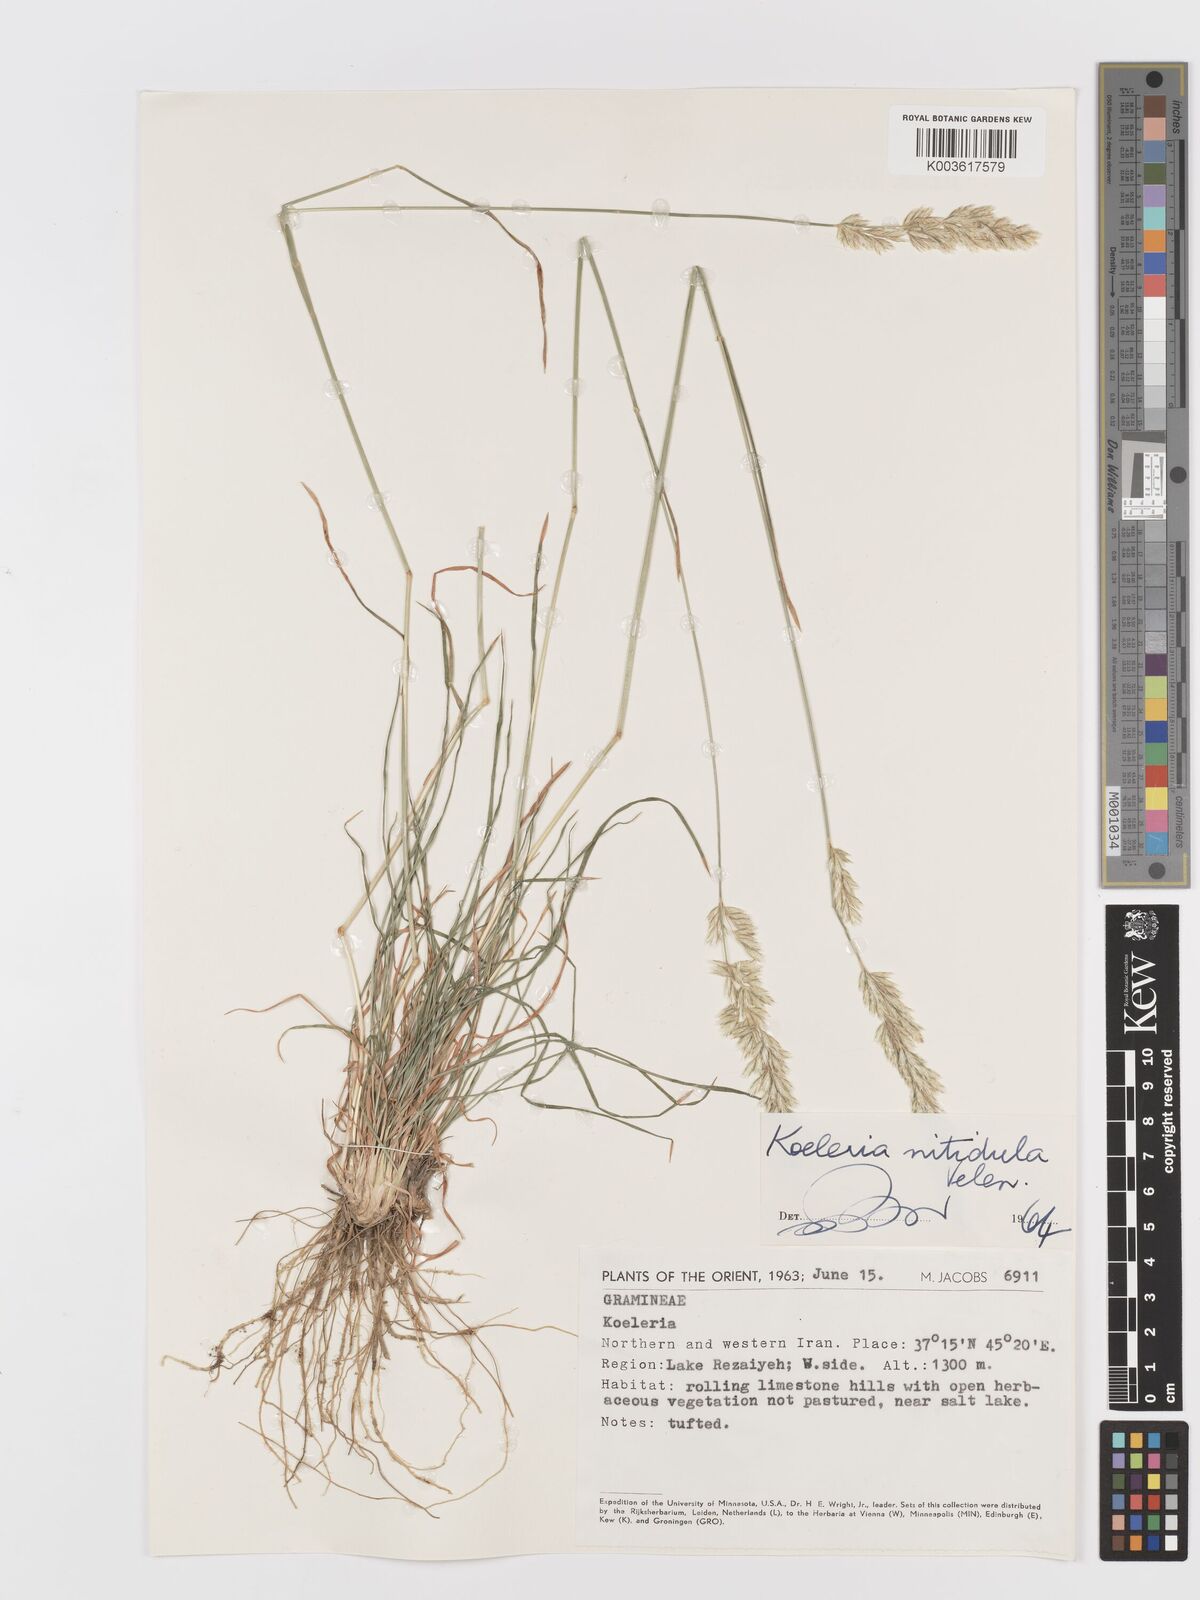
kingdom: Plantae
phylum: Tracheophyta
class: Liliopsida
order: Poales
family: Poaceae
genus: Koeleria
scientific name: Koeleria nitidula
